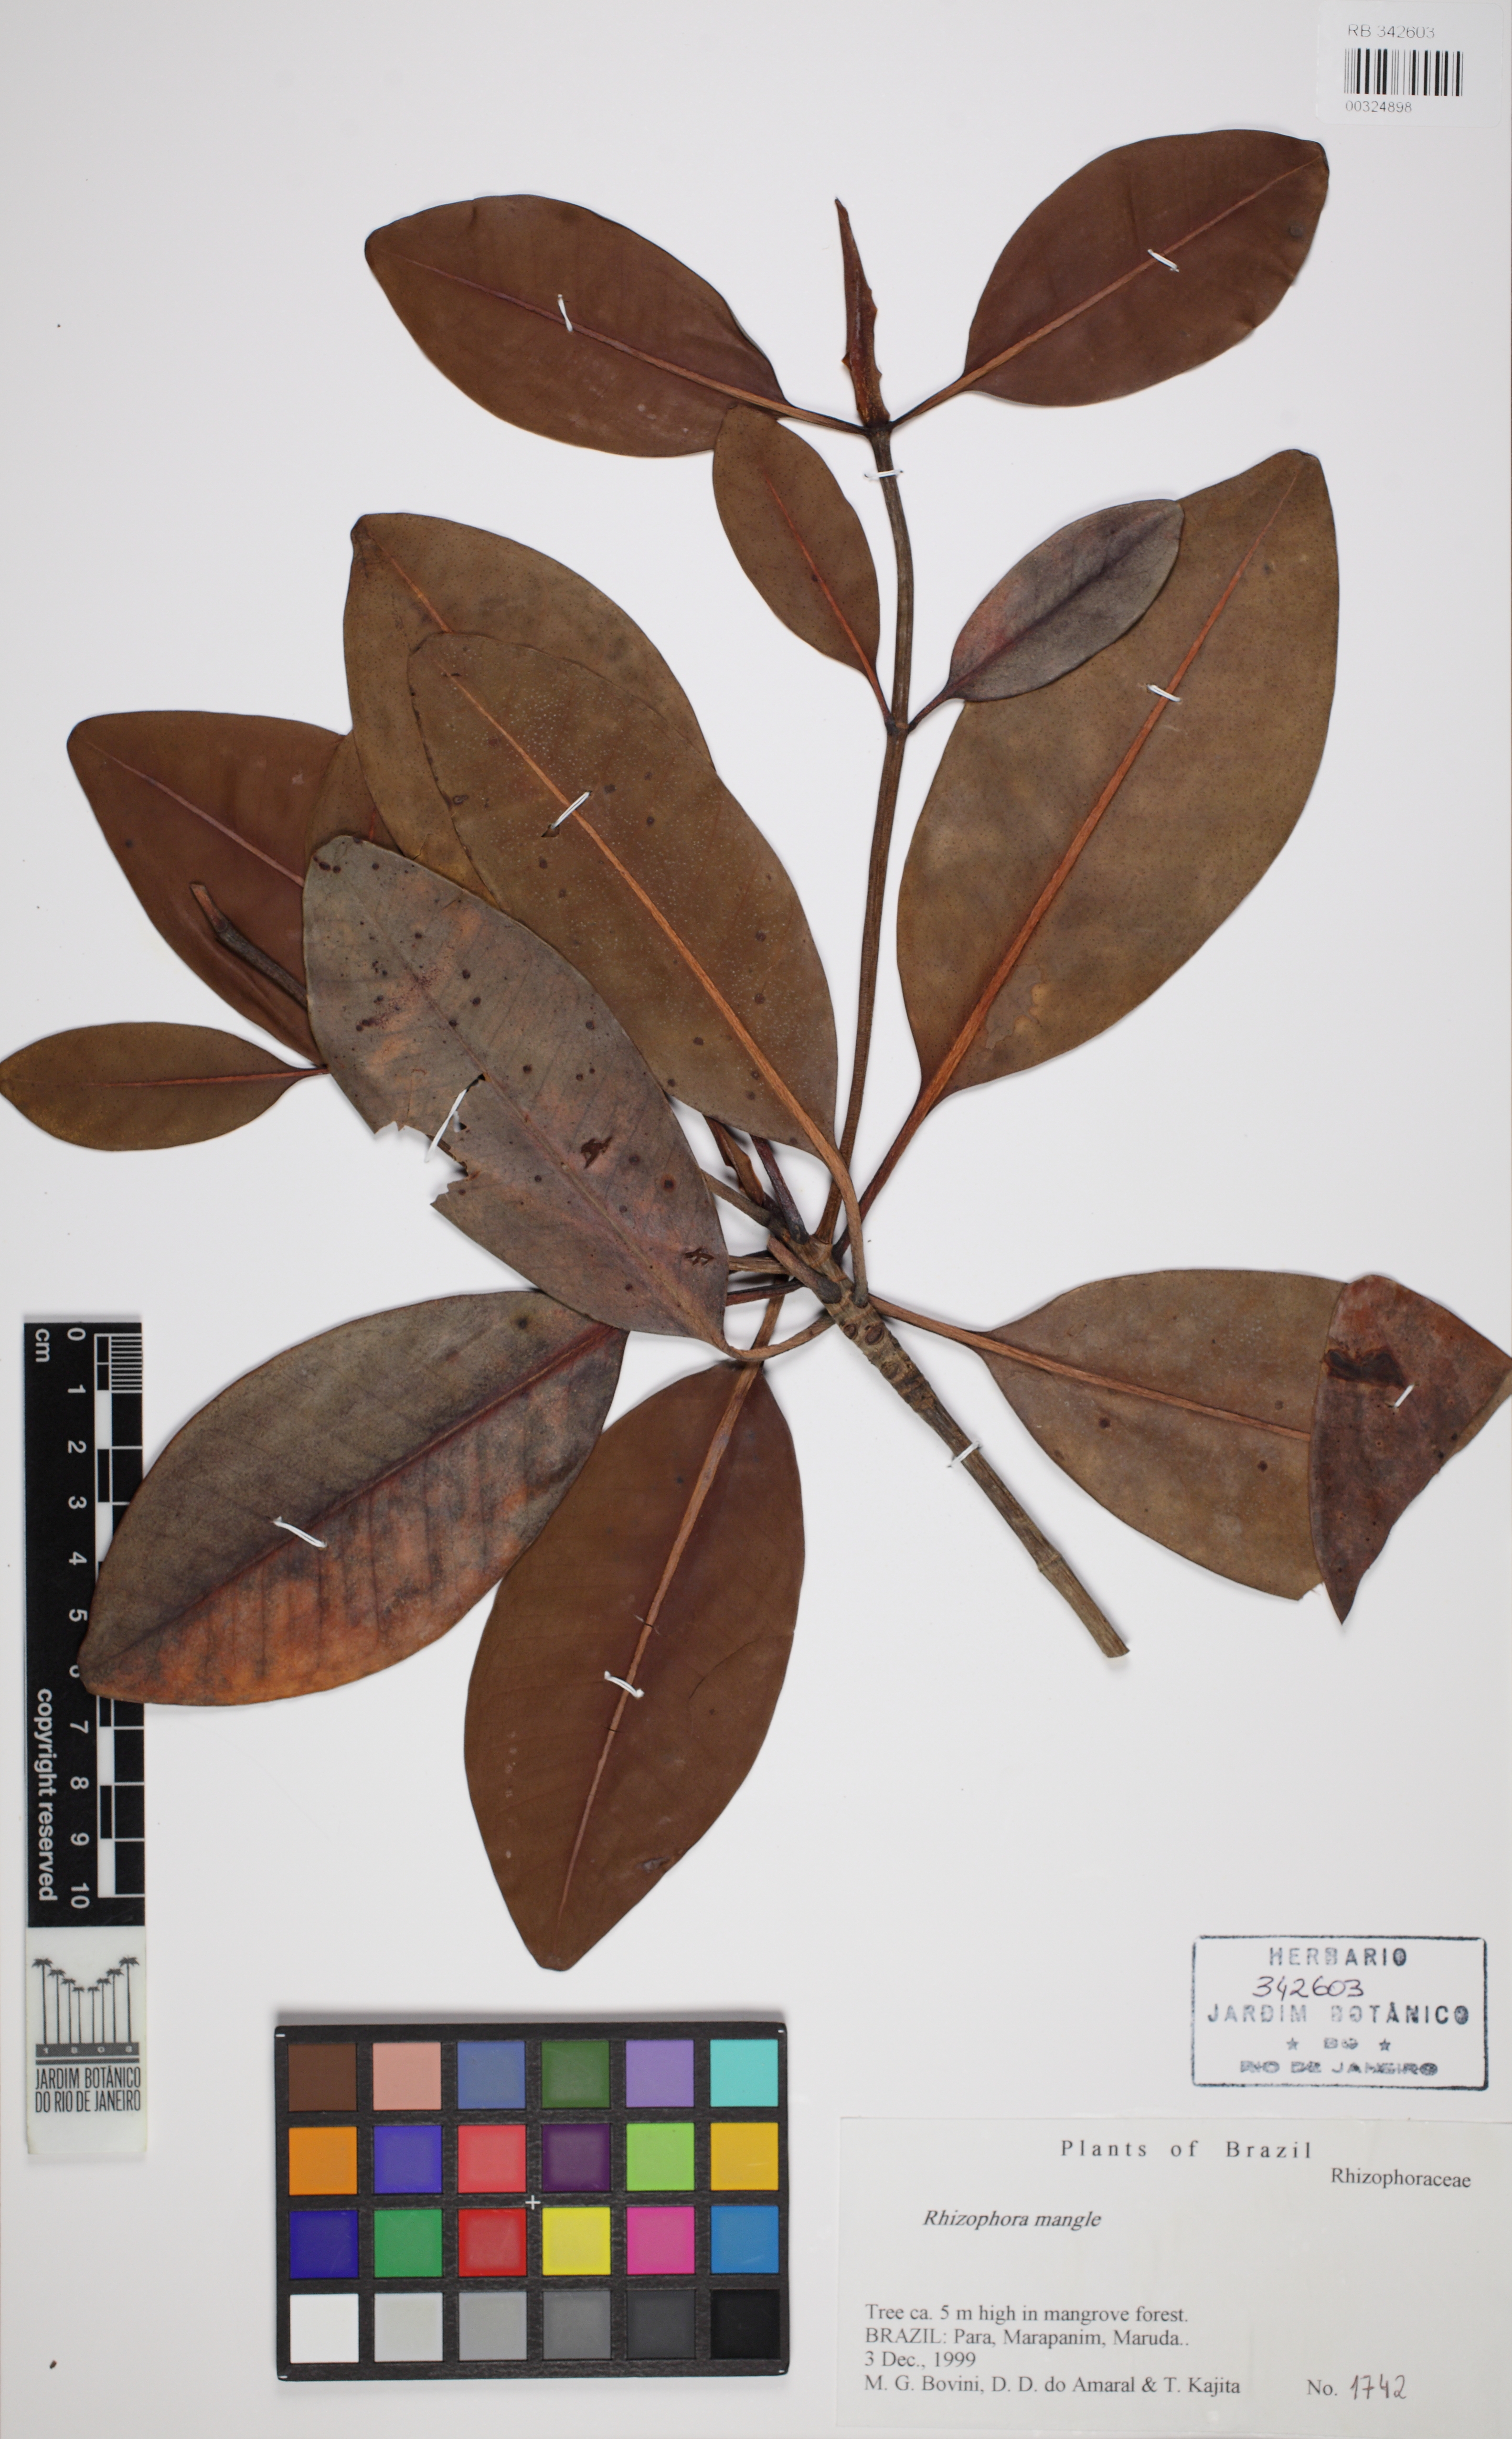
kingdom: Plantae
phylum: Tracheophyta
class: Magnoliopsida
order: Malpighiales
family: Rhizophoraceae
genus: Rhizophora
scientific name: Rhizophora mangle
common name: Red mangrove
